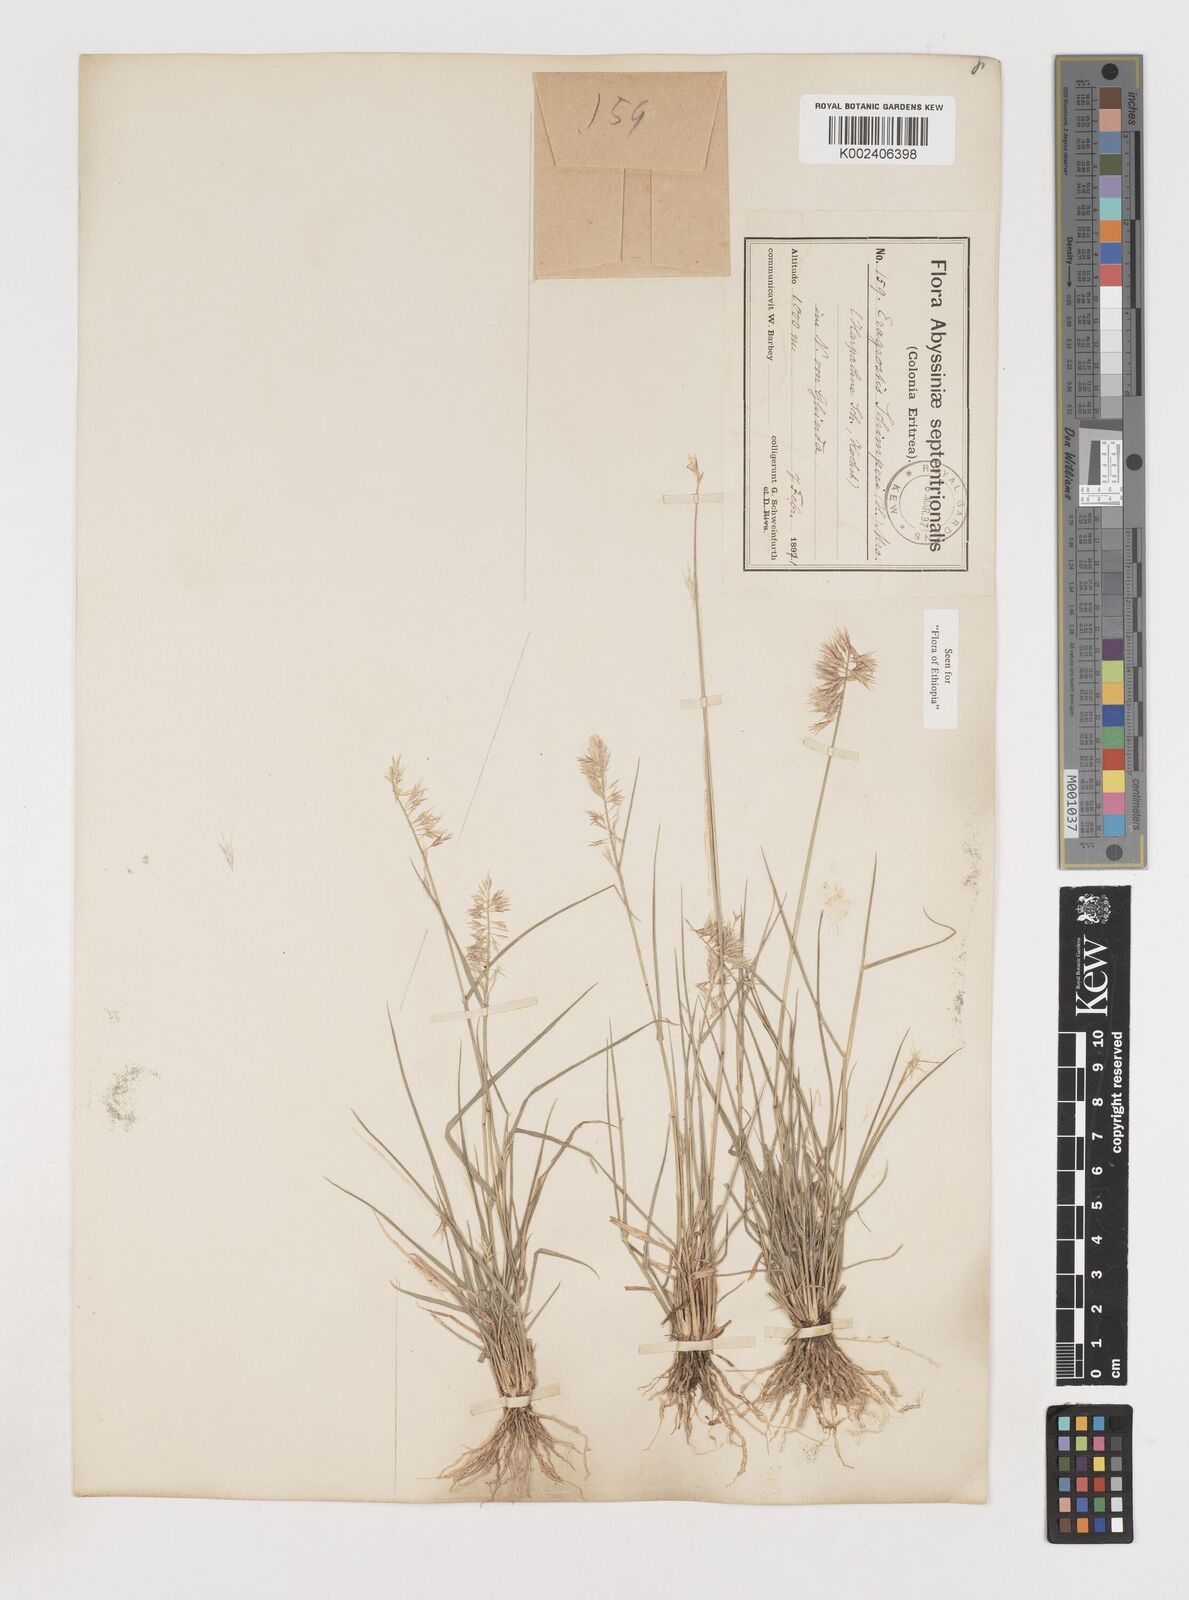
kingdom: Plantae
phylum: Tracheophyta
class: Liliopsida
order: Poales
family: Poaceae
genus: Harpachne
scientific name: Harpachne schimperi
